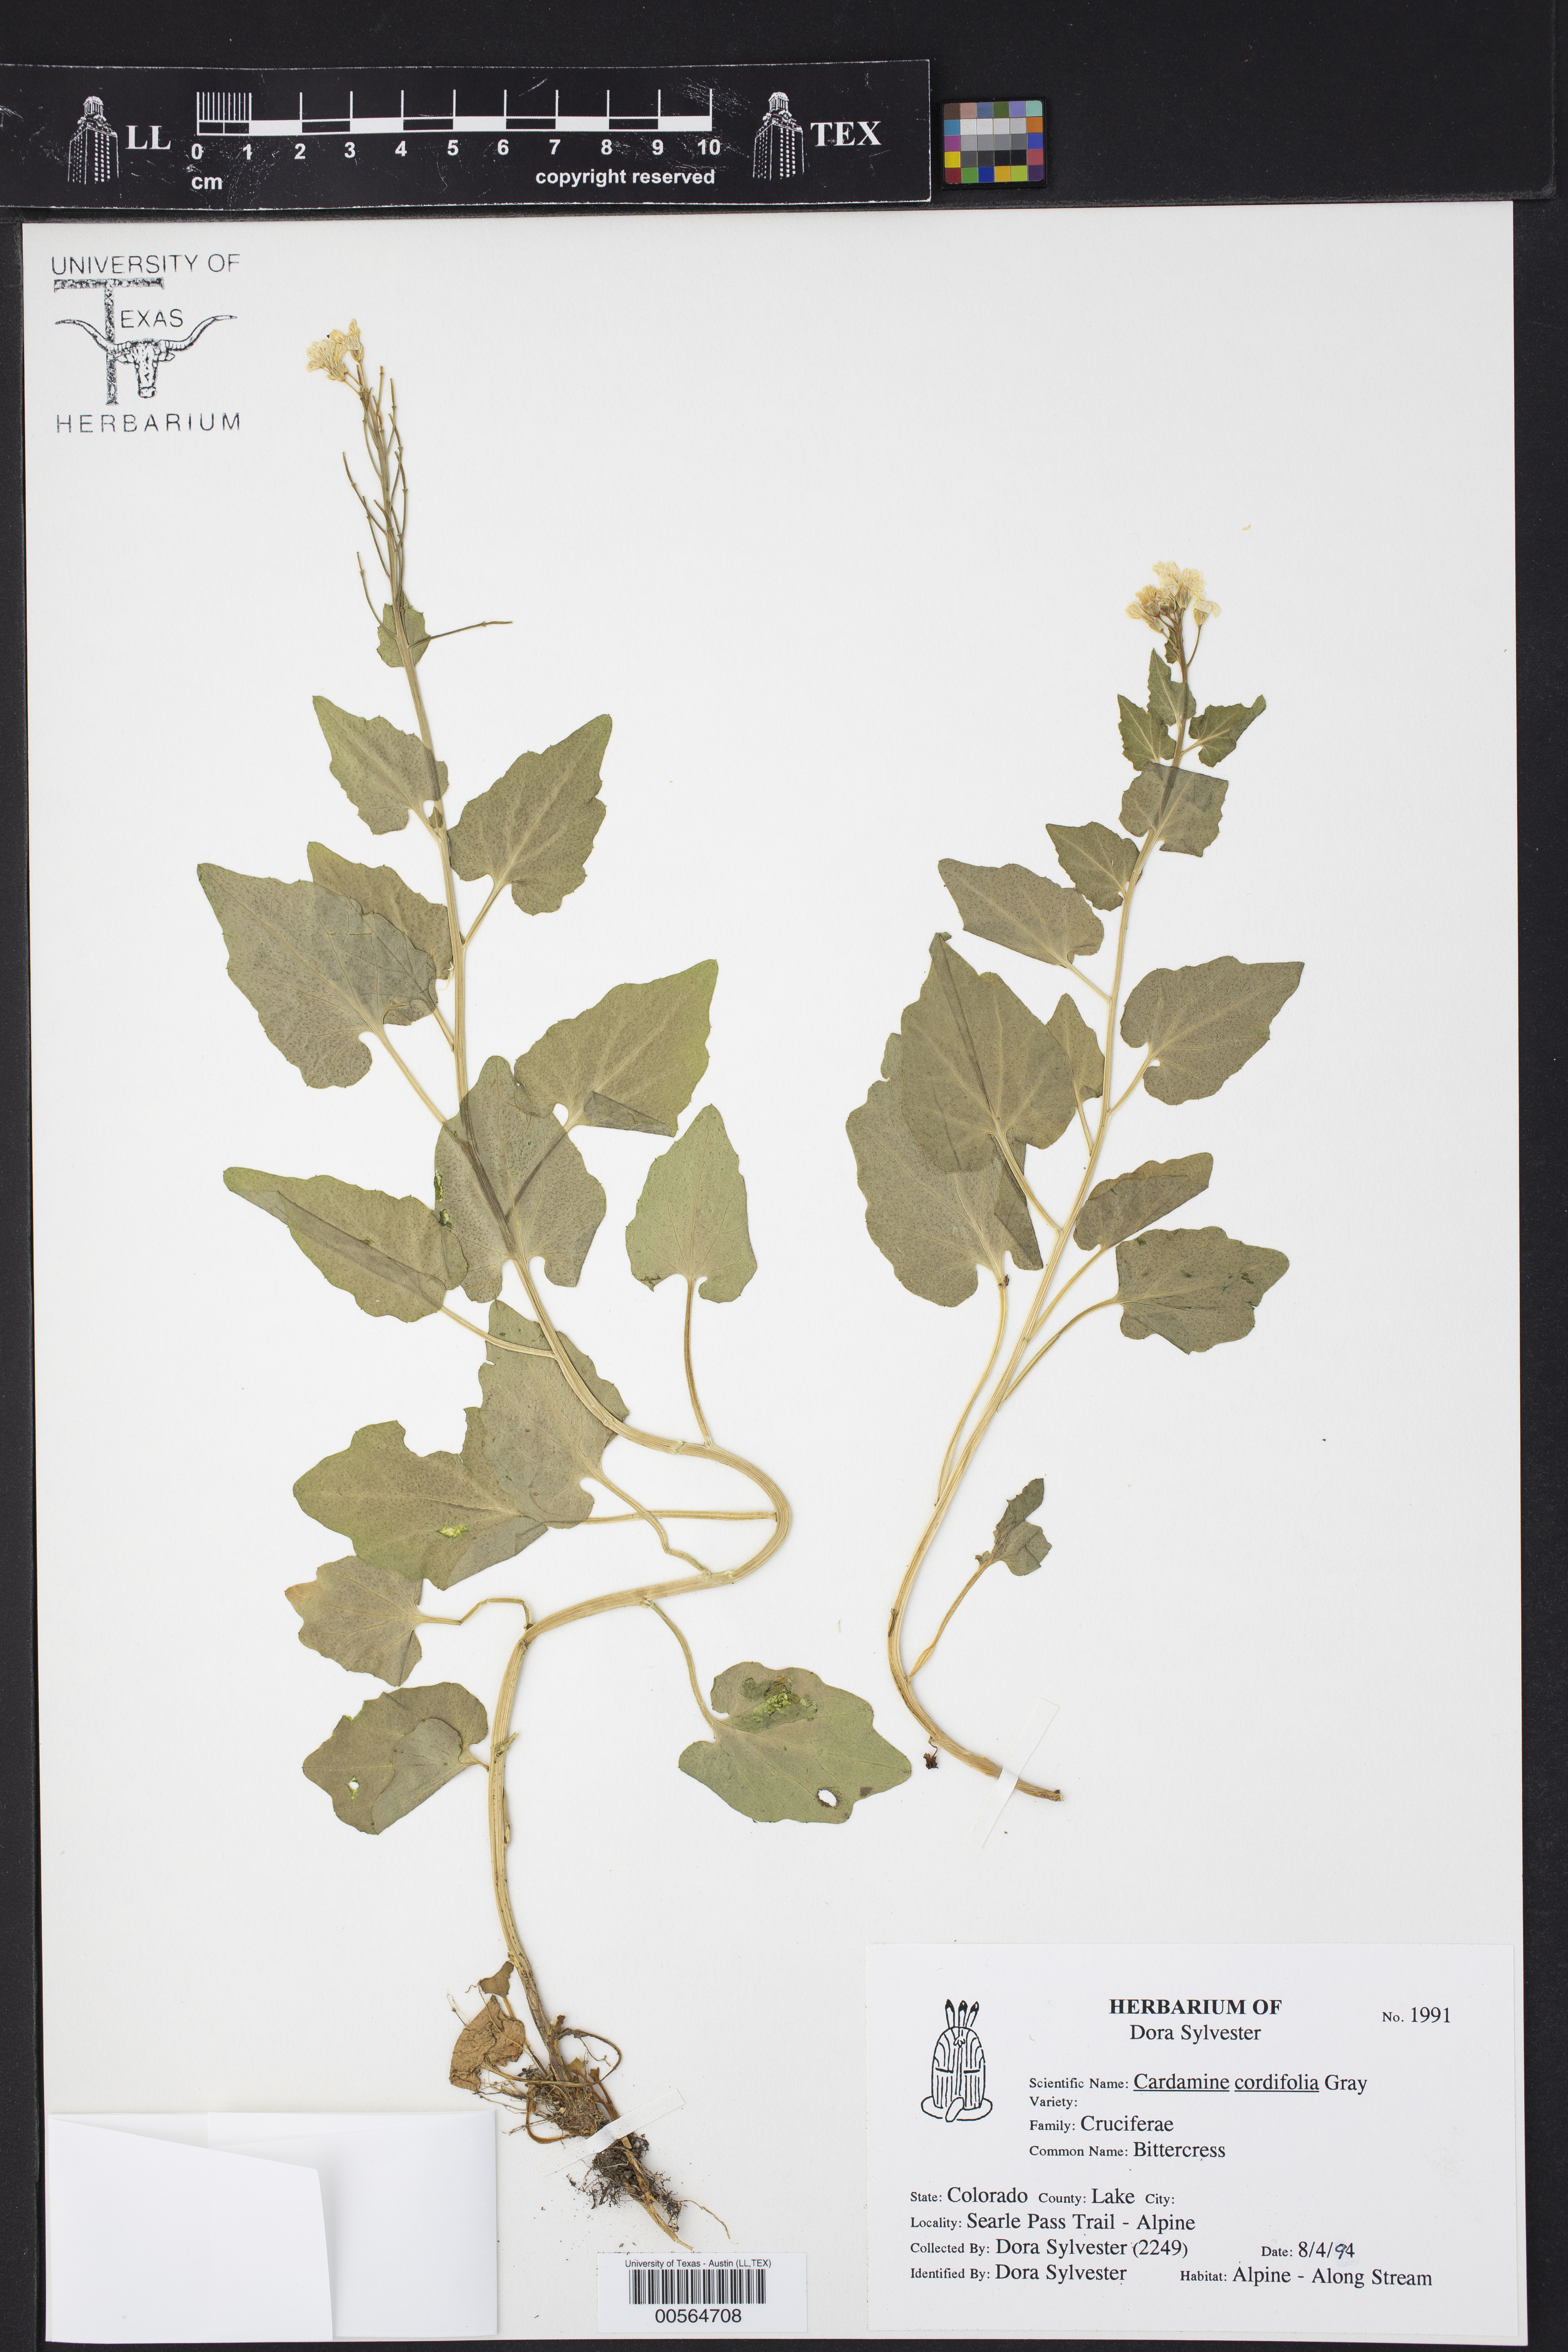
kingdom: Plantae
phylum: Tracheophyta
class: Magnoliopsida
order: Brassicales
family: Brassicaceae
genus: Cardamine
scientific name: Cardamine cordifolia
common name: Heart-leaf bittercress
